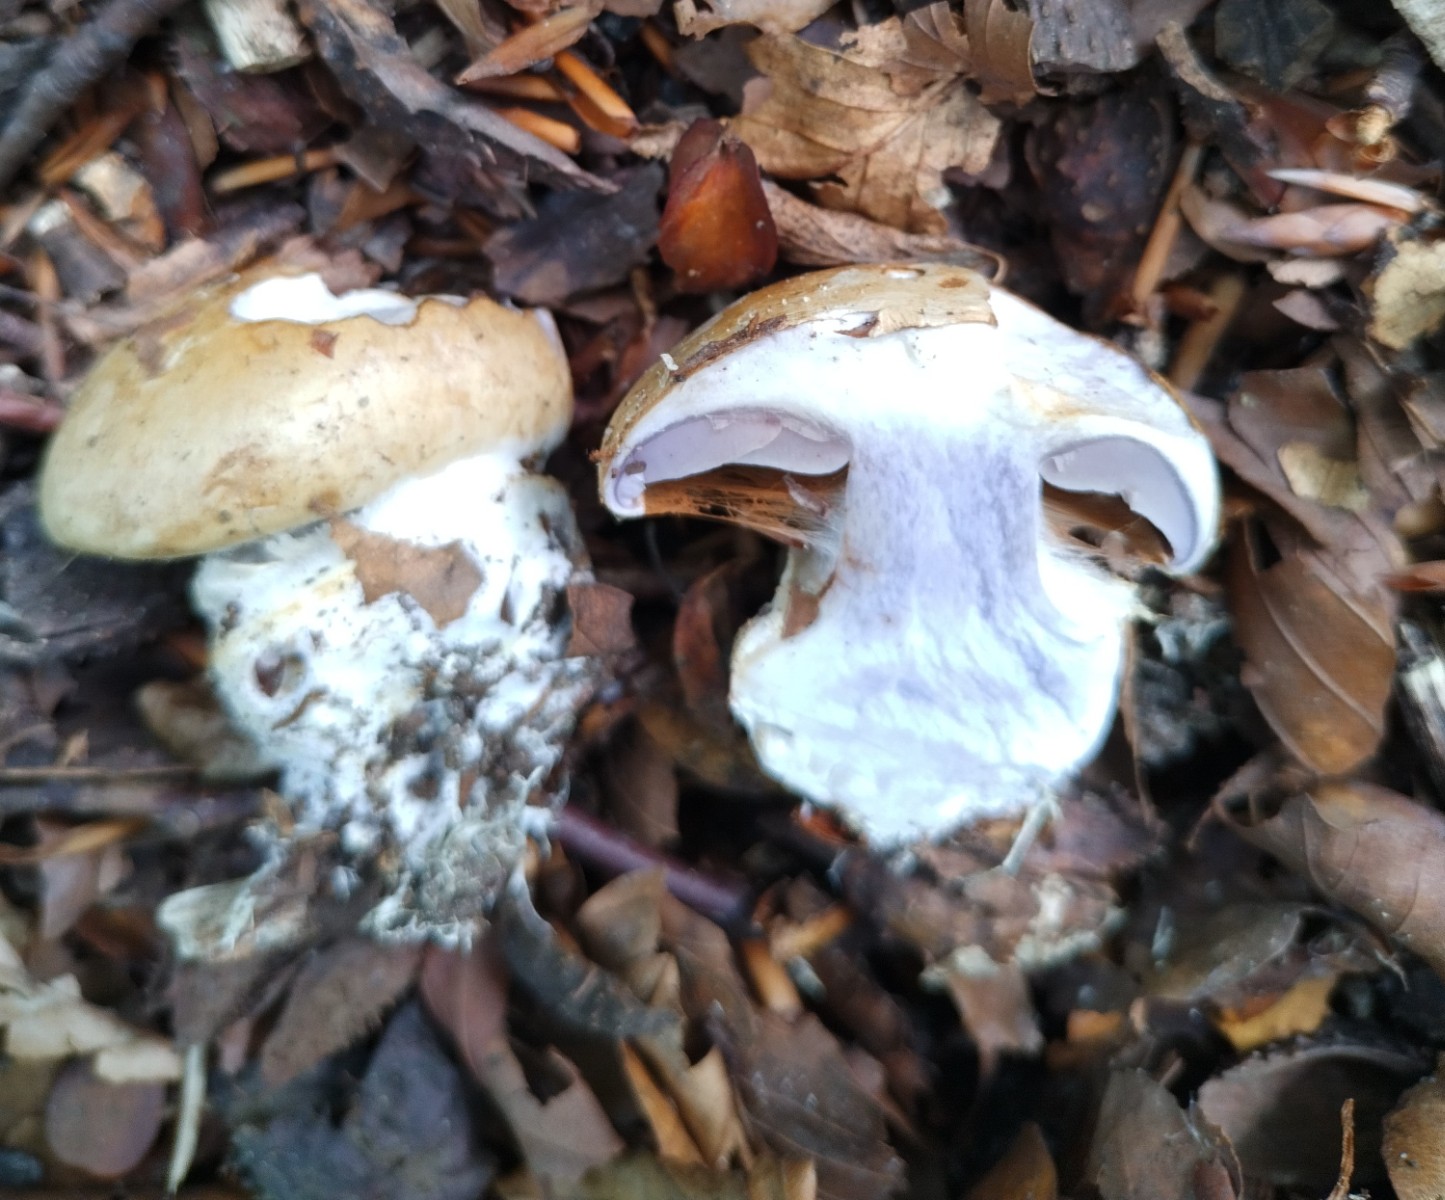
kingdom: Fungi
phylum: Basidiomycota
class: Agaricomycetes
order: Agaricales
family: Cortinariaceae
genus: Cortinarius
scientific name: Cortinarius anserinus
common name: bøge-slørhat
